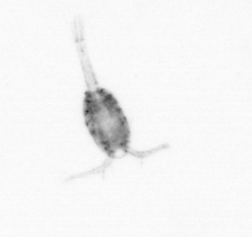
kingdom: Animalia
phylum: Arthropoda
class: Copepoda
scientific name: Copepoda
